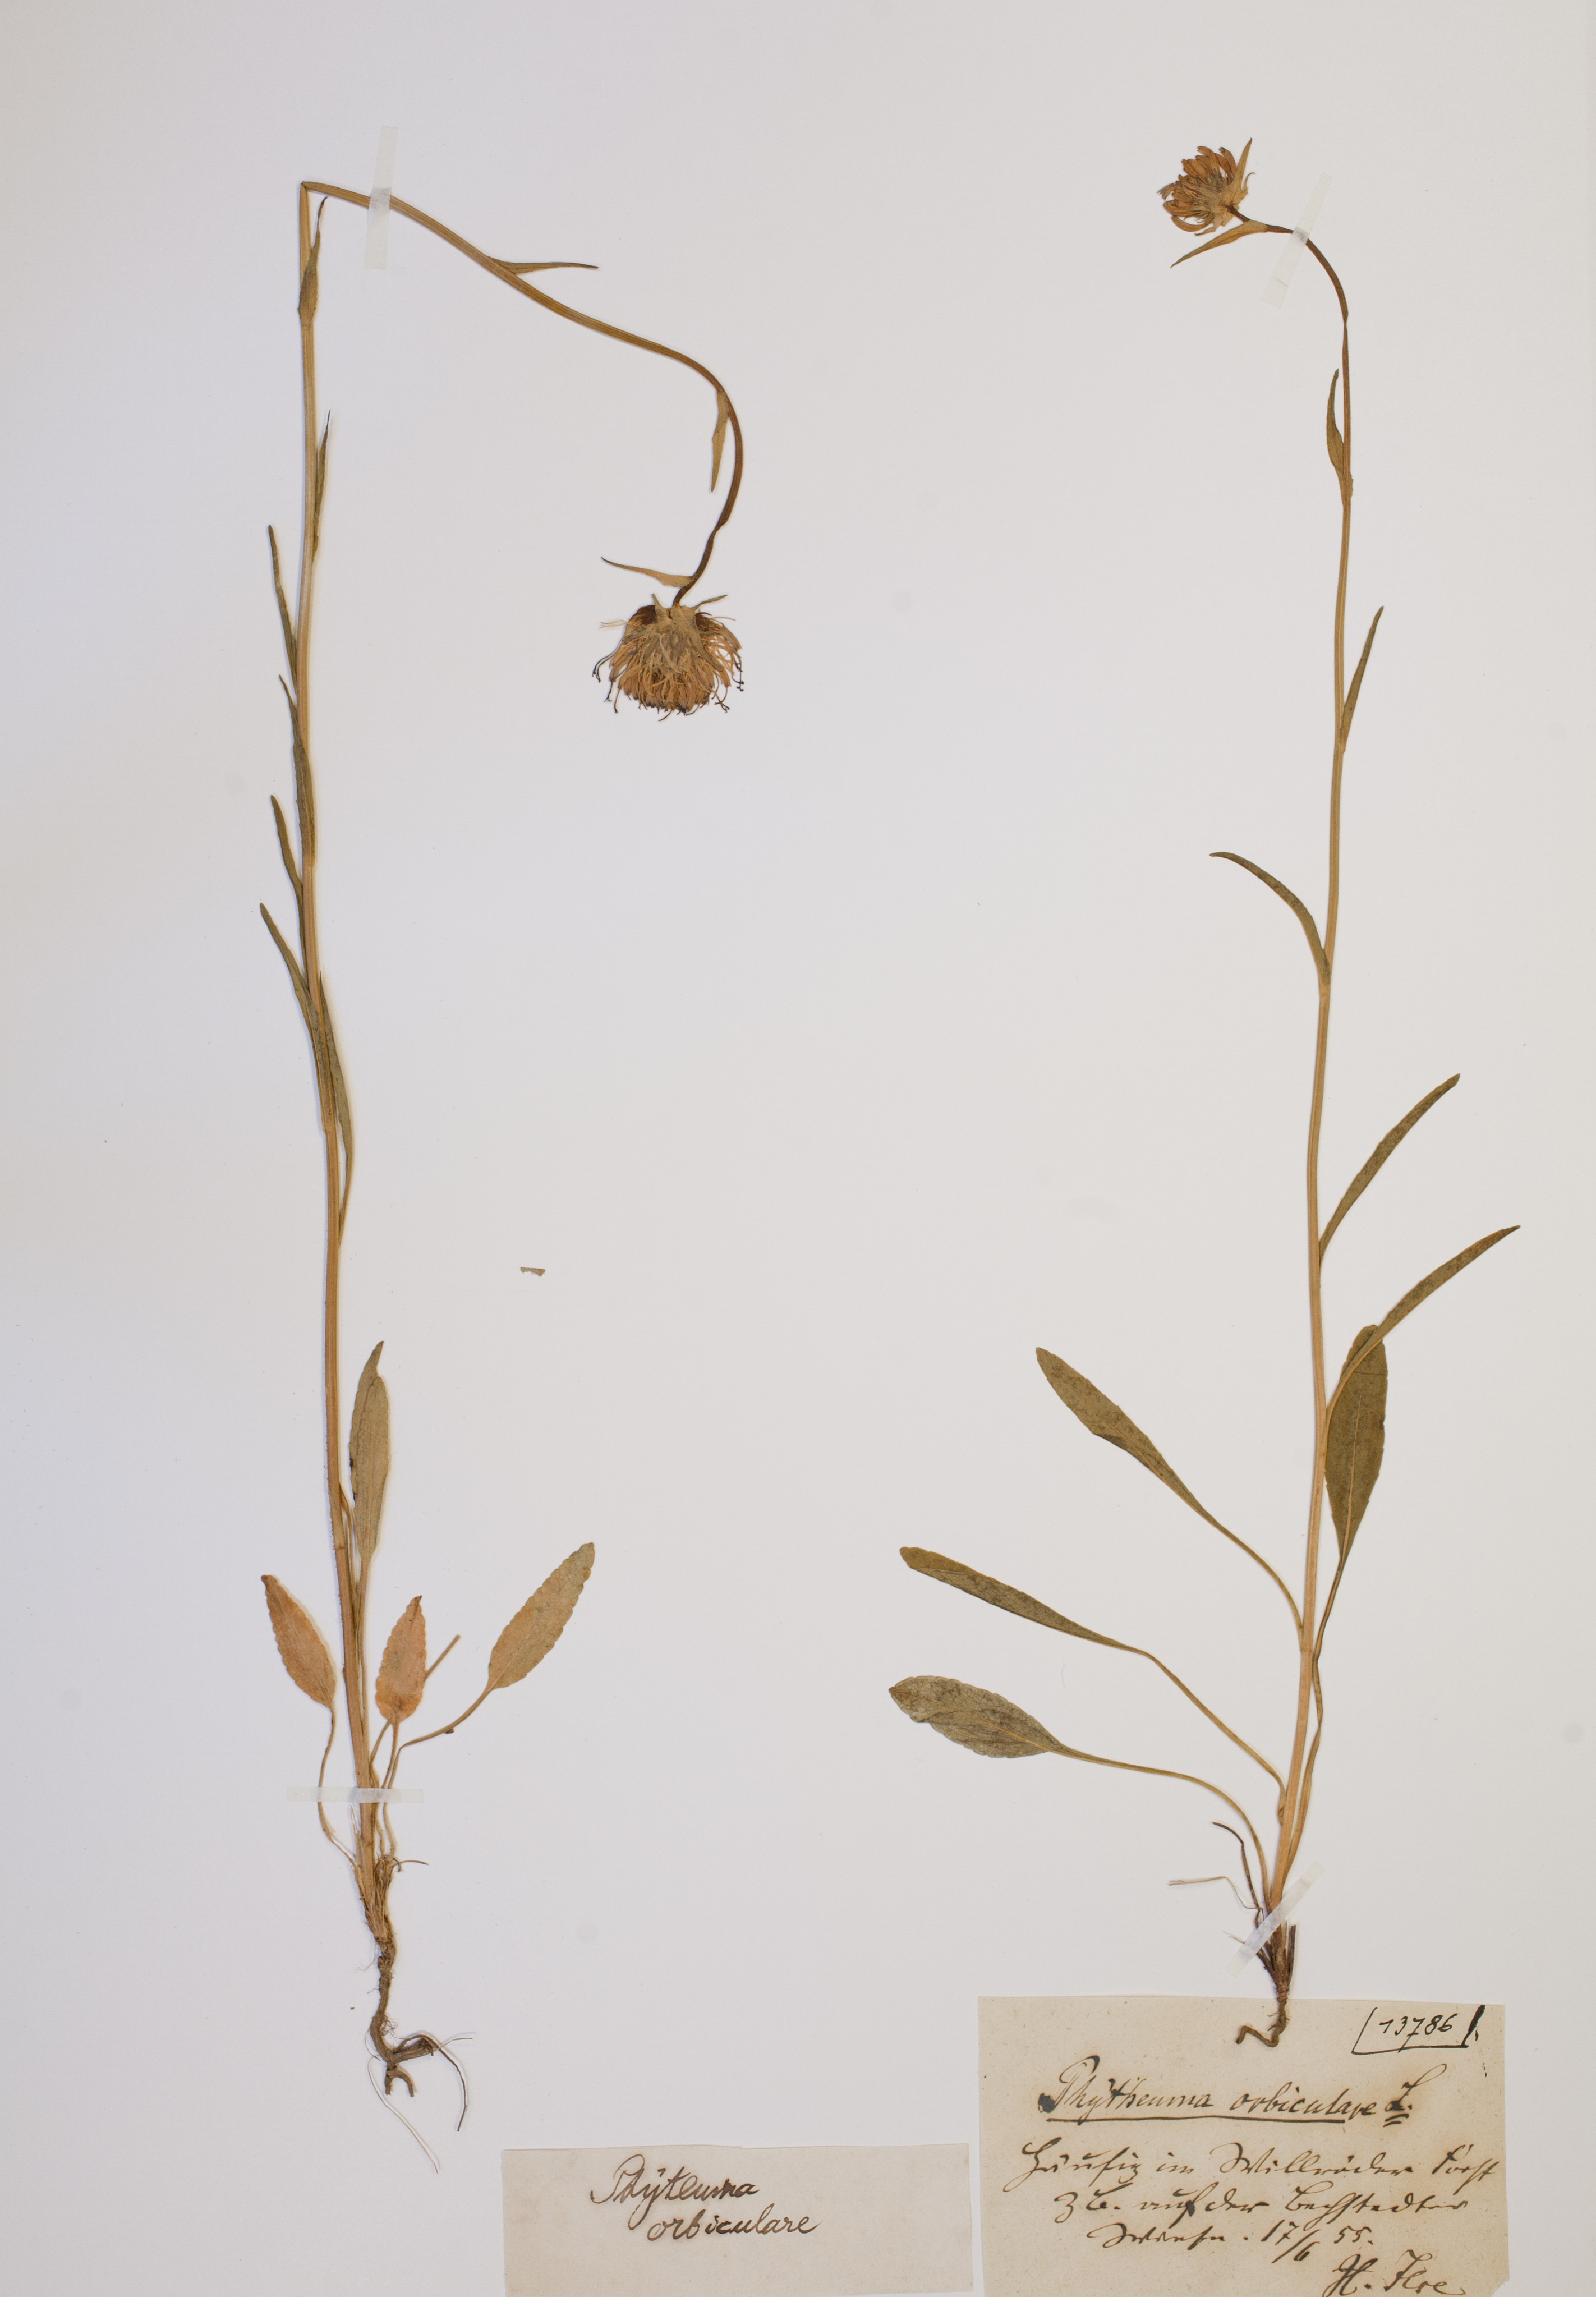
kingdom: Plantae
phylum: Tracheophyta
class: Magnoliopsida
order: Asterales
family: Campanulaceae
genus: Phyteuma
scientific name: Phyteuma orbiculare
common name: Round-headed rampion
